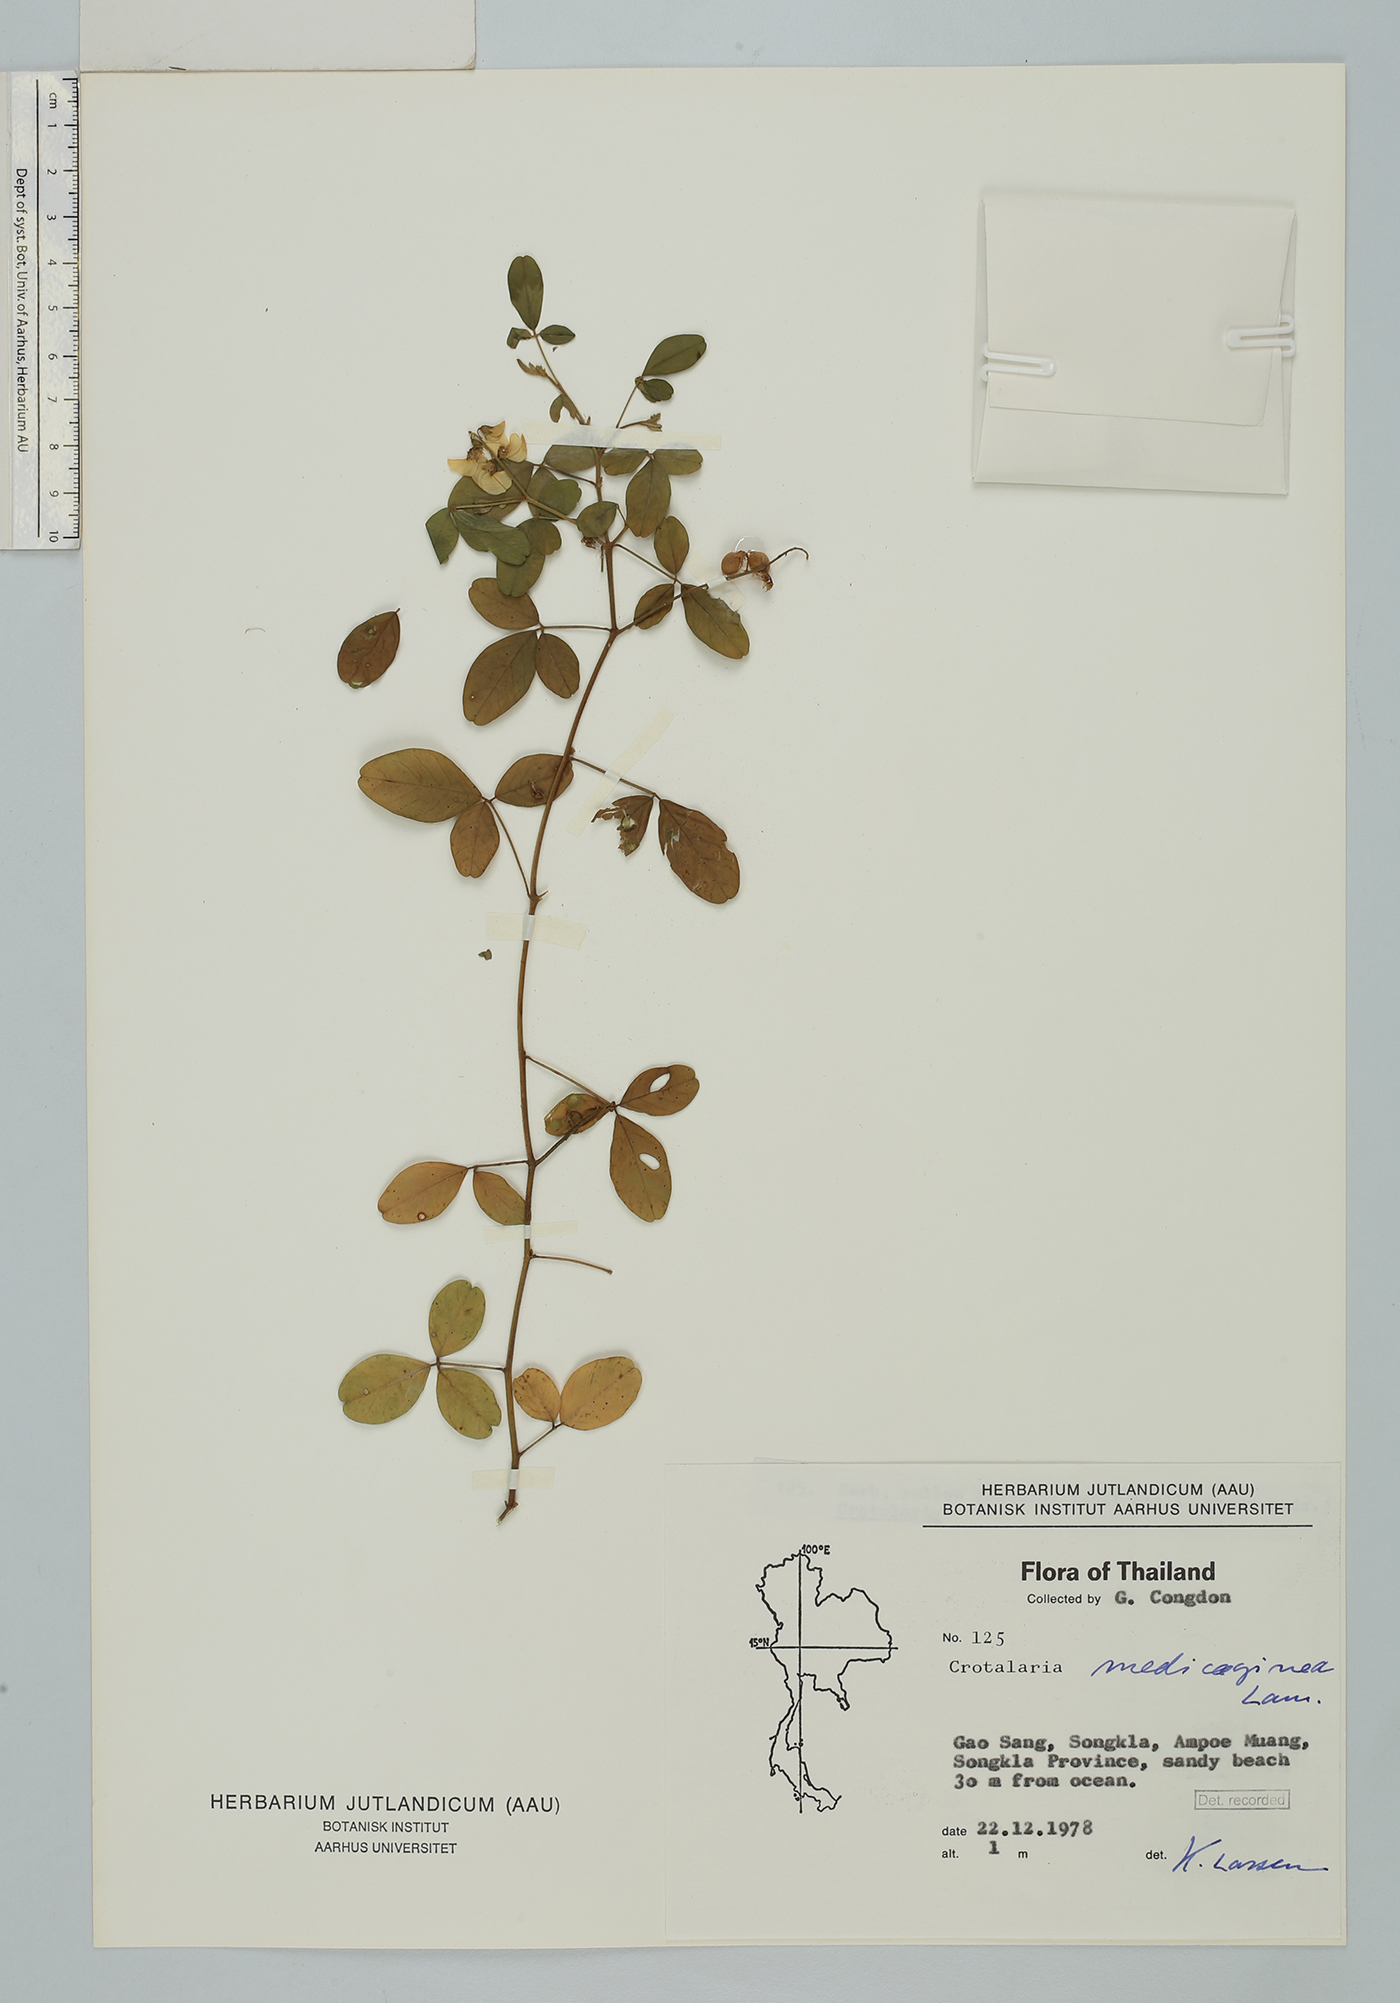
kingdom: Plantae
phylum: Tracheophyta
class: Magnoliopsida
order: Fabales
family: Fabaceae
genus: Crotalaria
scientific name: Crotalaria uncinella
